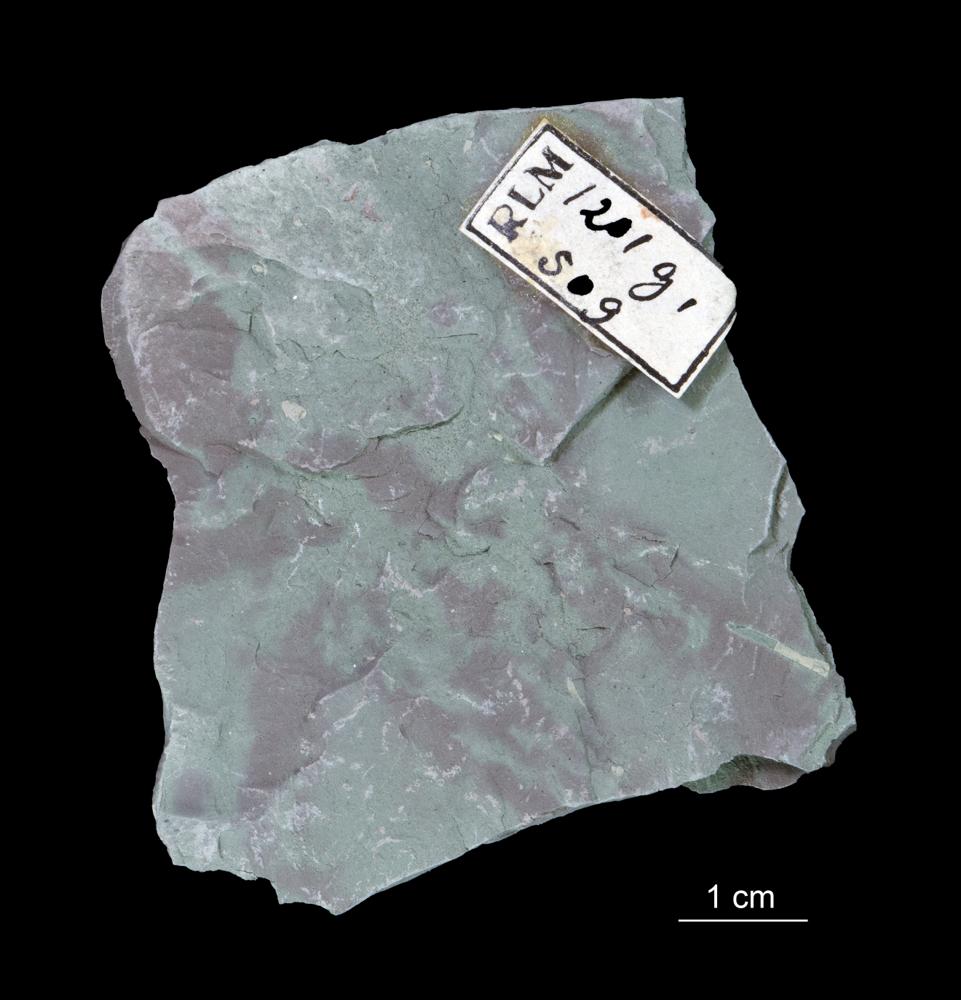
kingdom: Chromista
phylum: Foraminifera
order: Astrorhizida
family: Hyperamminidae
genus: Platysolenites
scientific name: Platysolenites antiquissimus
